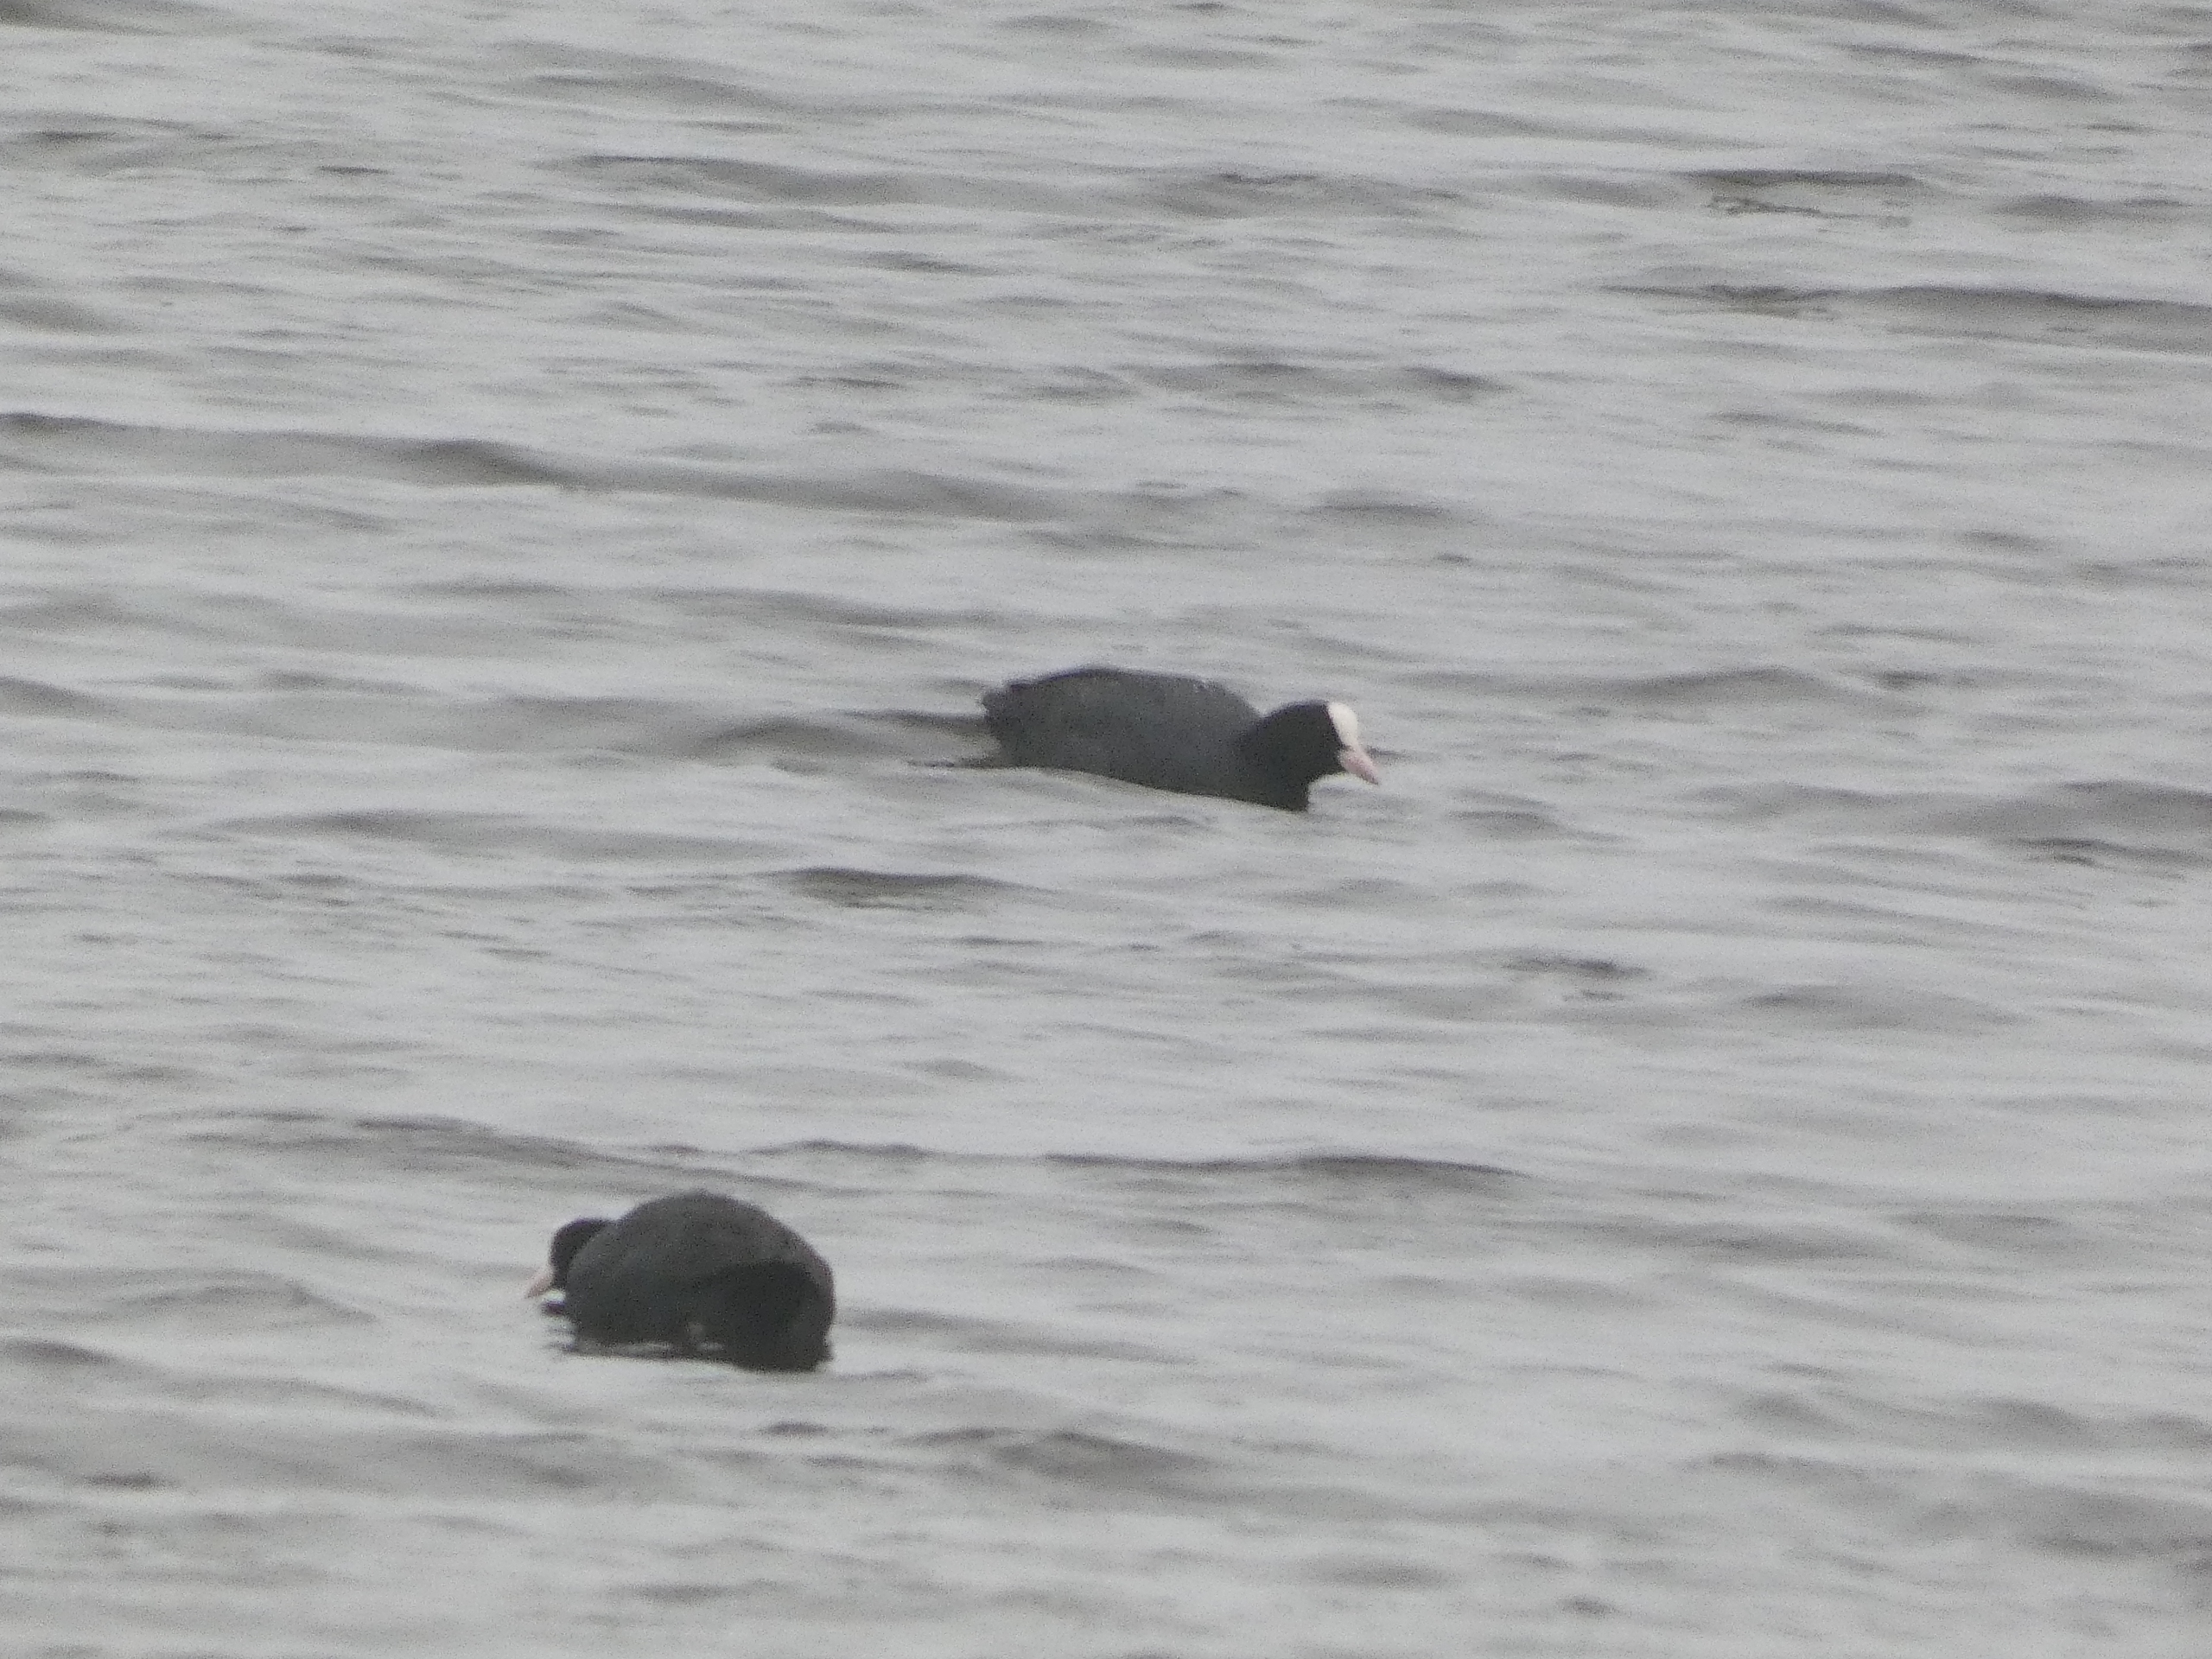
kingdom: Animalia
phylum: Chordata
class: Aves
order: Gruiformes
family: Rallidae
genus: Fulica
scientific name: Fulica atra
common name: Blishøne
